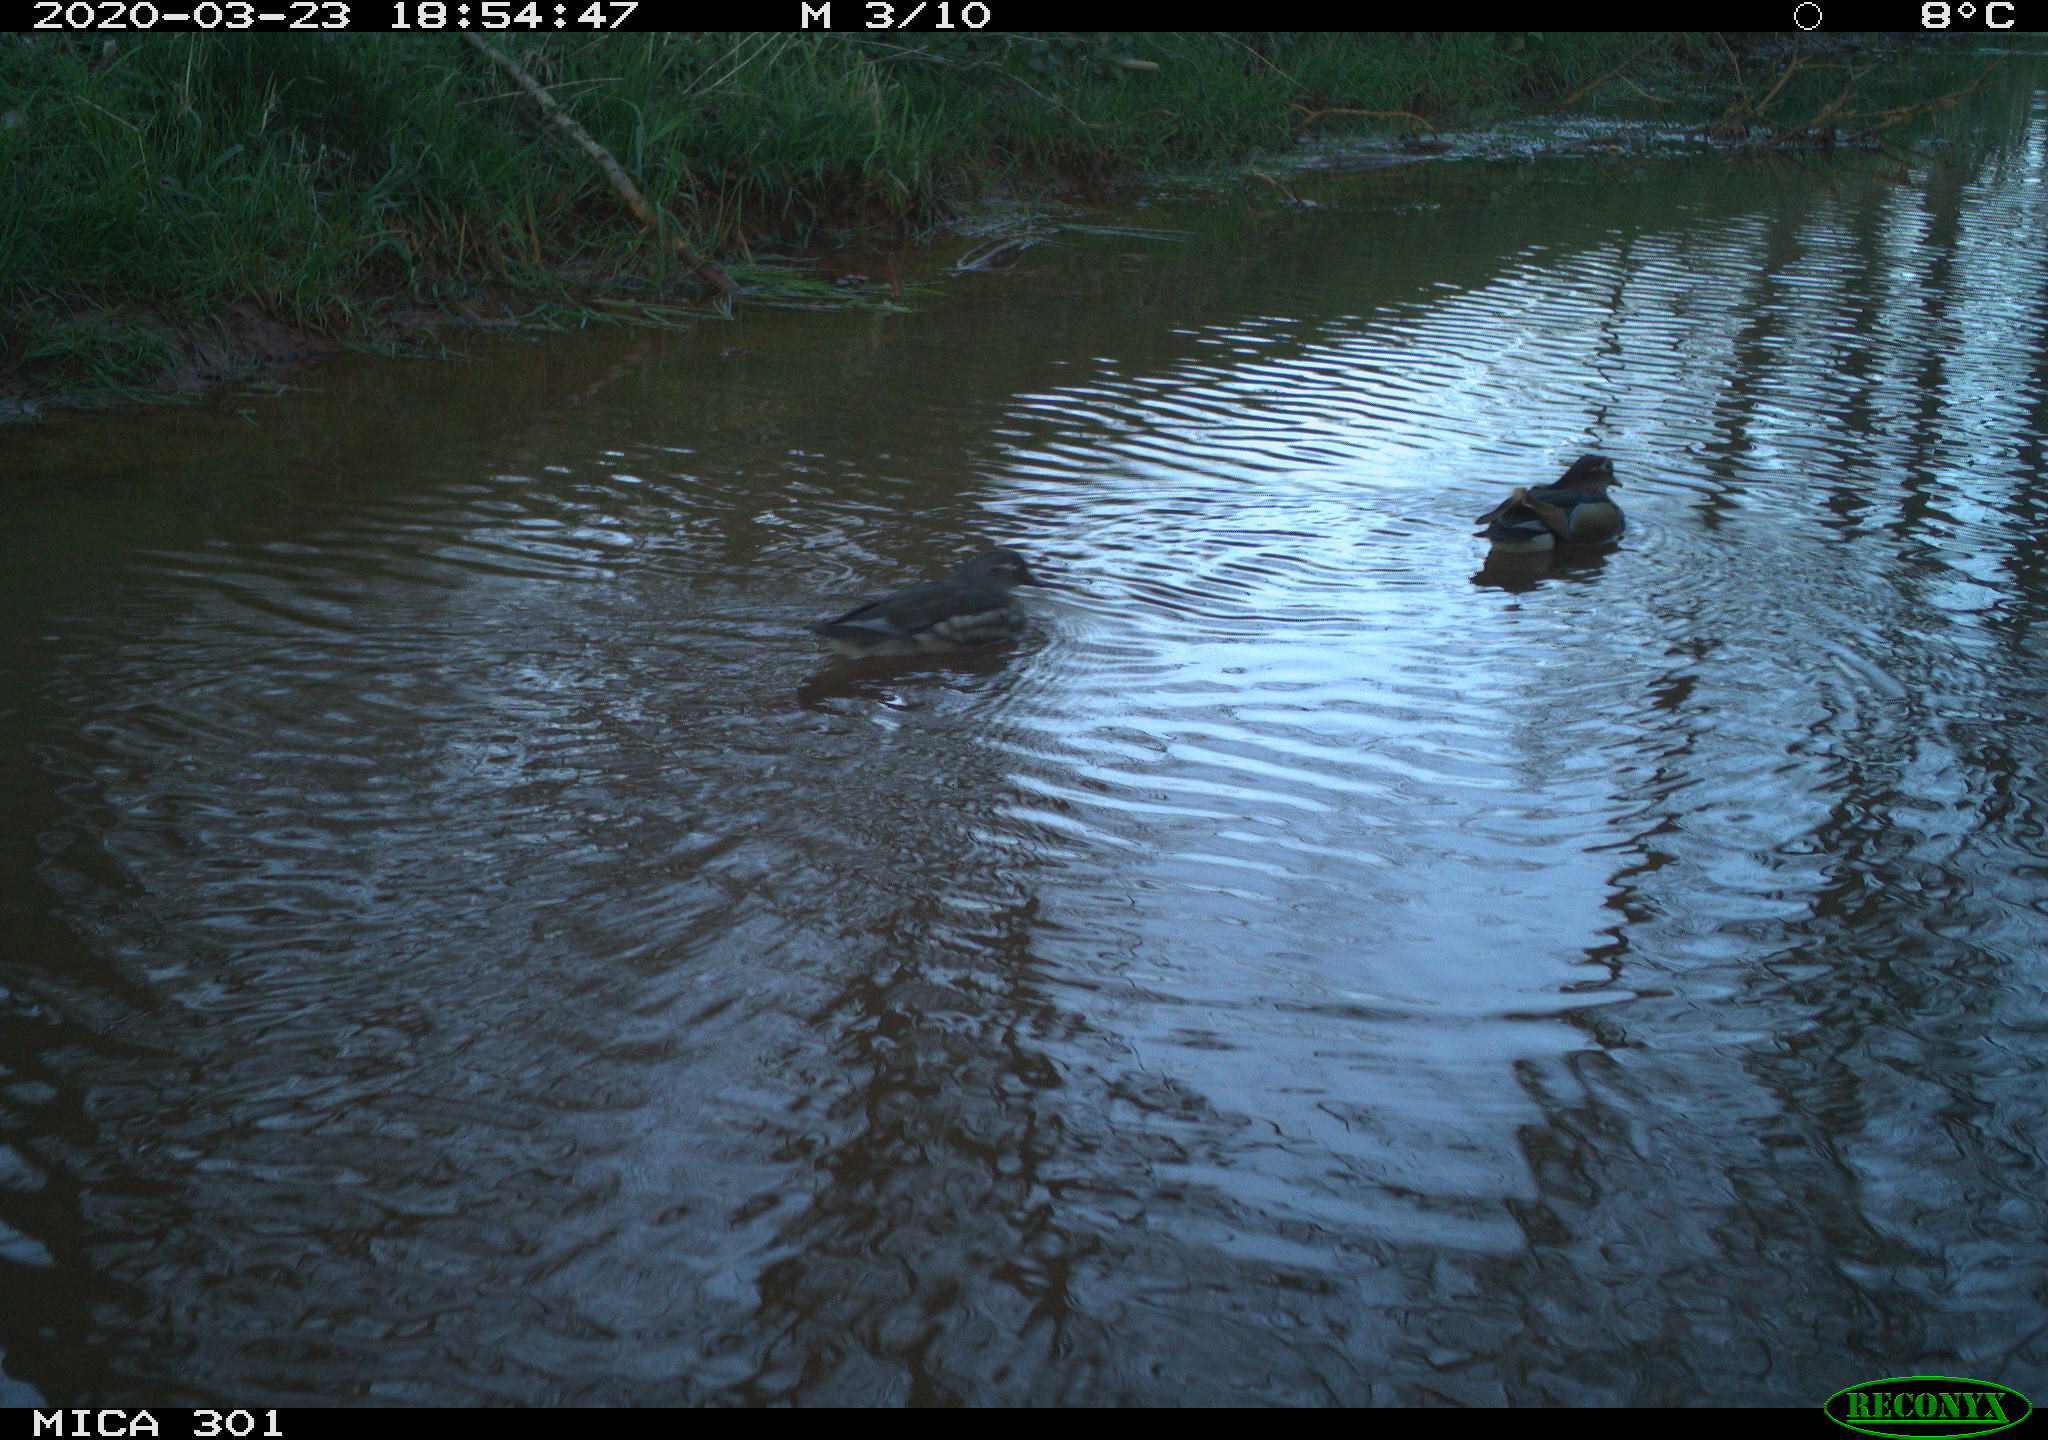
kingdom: Animalia
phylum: Chordata
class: Aves
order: Anseriformes
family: Anatidae
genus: Aix
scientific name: Aix galericulata
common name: Mandarin duck
